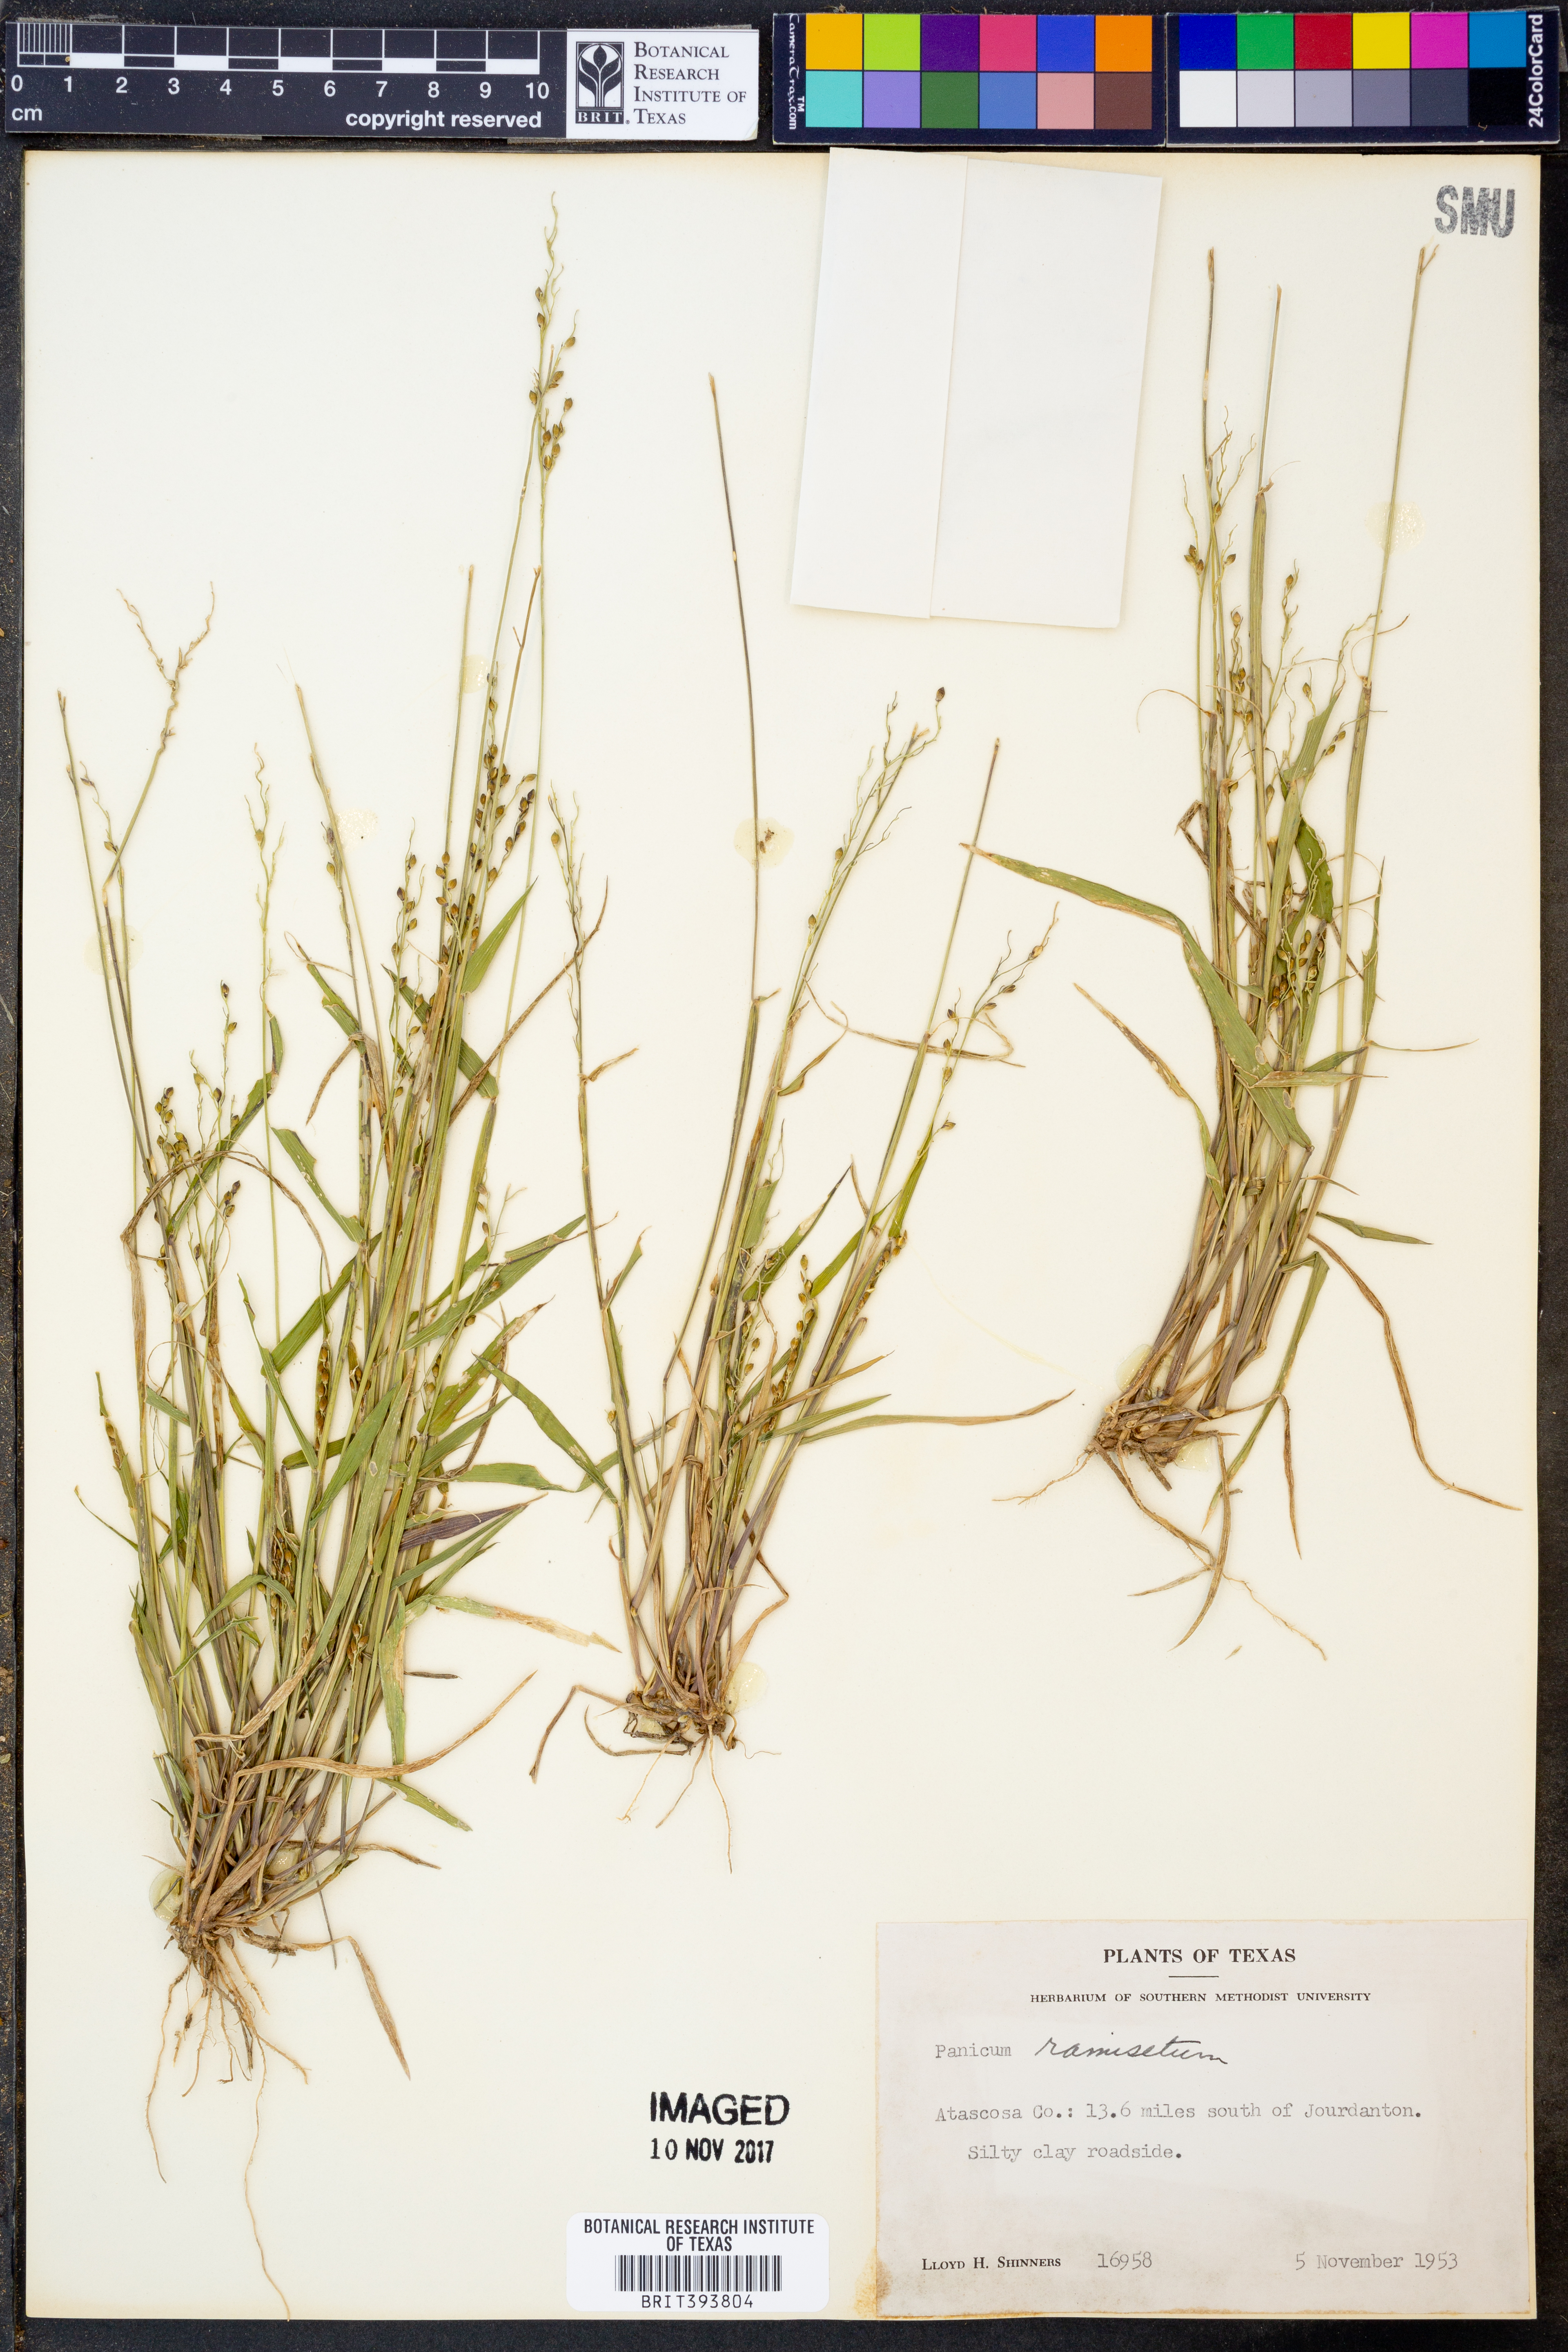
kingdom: Plantae
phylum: Tracheophyta
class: Liliopsida
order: Poales
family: Poaceae
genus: Setaria
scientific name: Setaria reverchonii
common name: Reverchon's bristle grass
